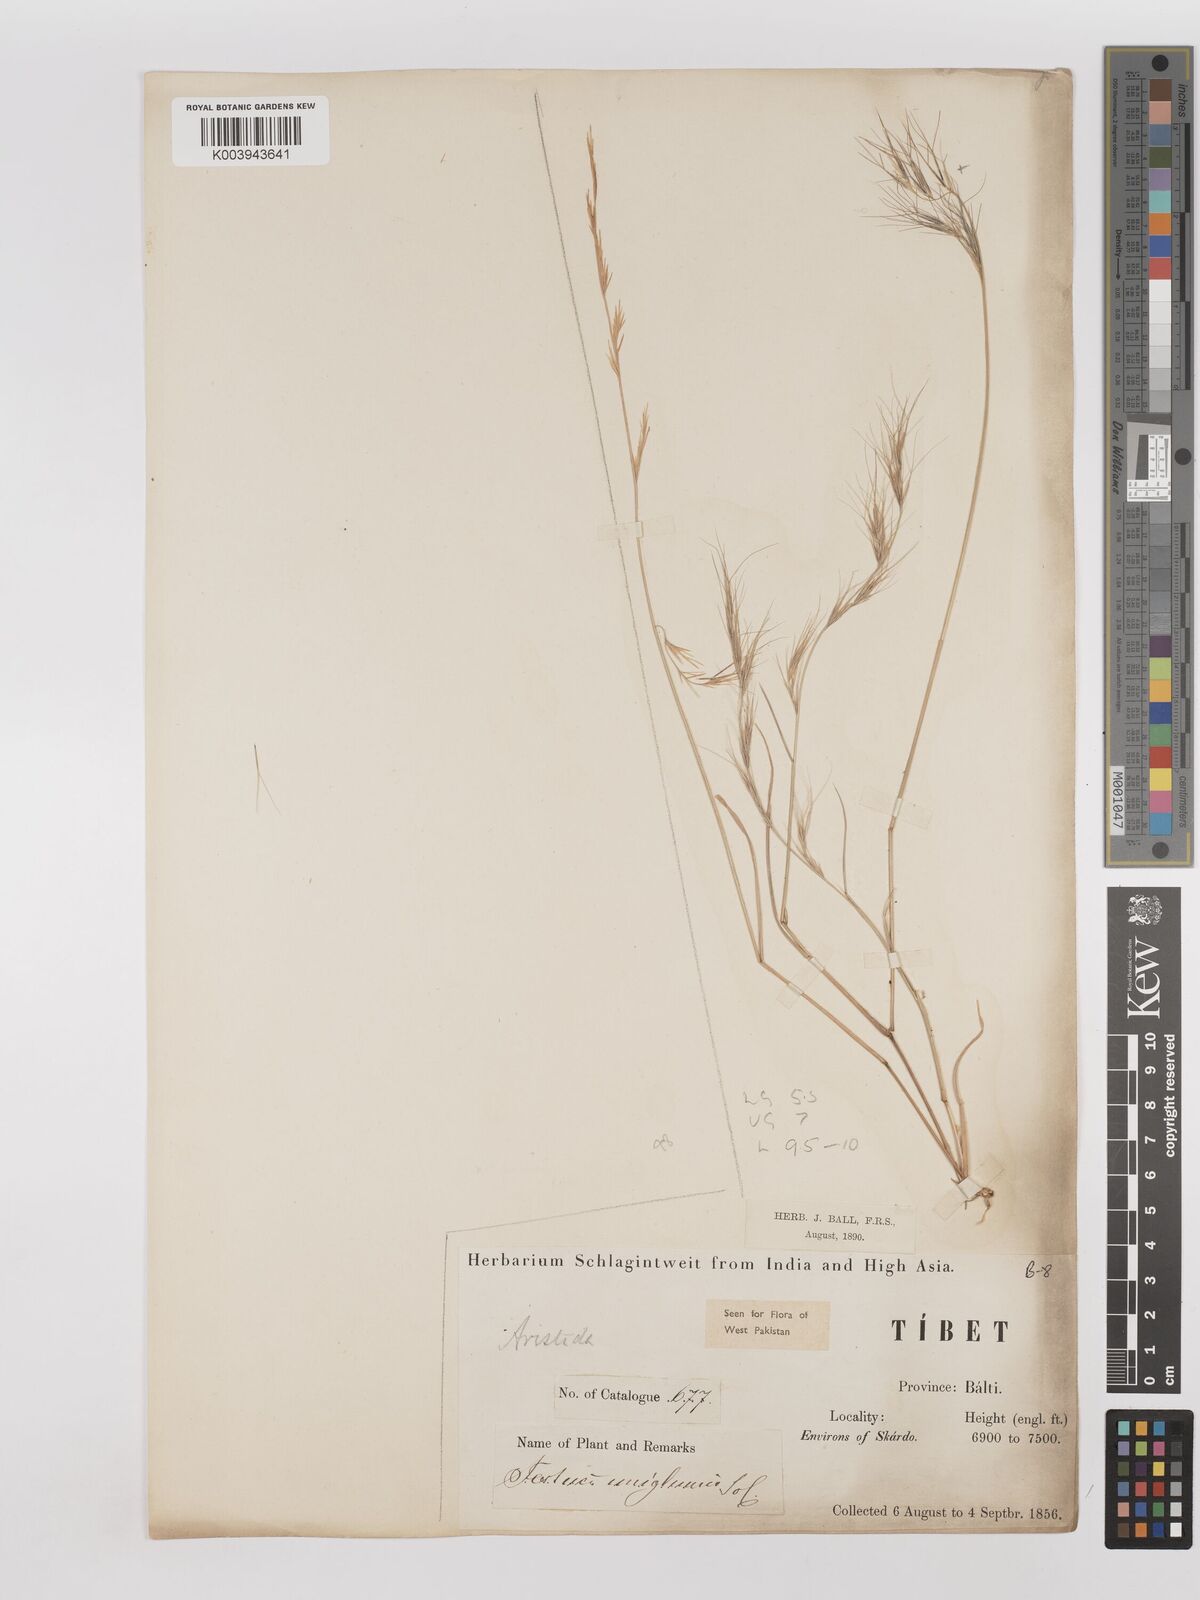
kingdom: Plantae
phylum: Tracheophyta
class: Liliopsida
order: Poales
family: Poaceae
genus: Aristida
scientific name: Aristida adscensionis
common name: Sixweeks threeawn
